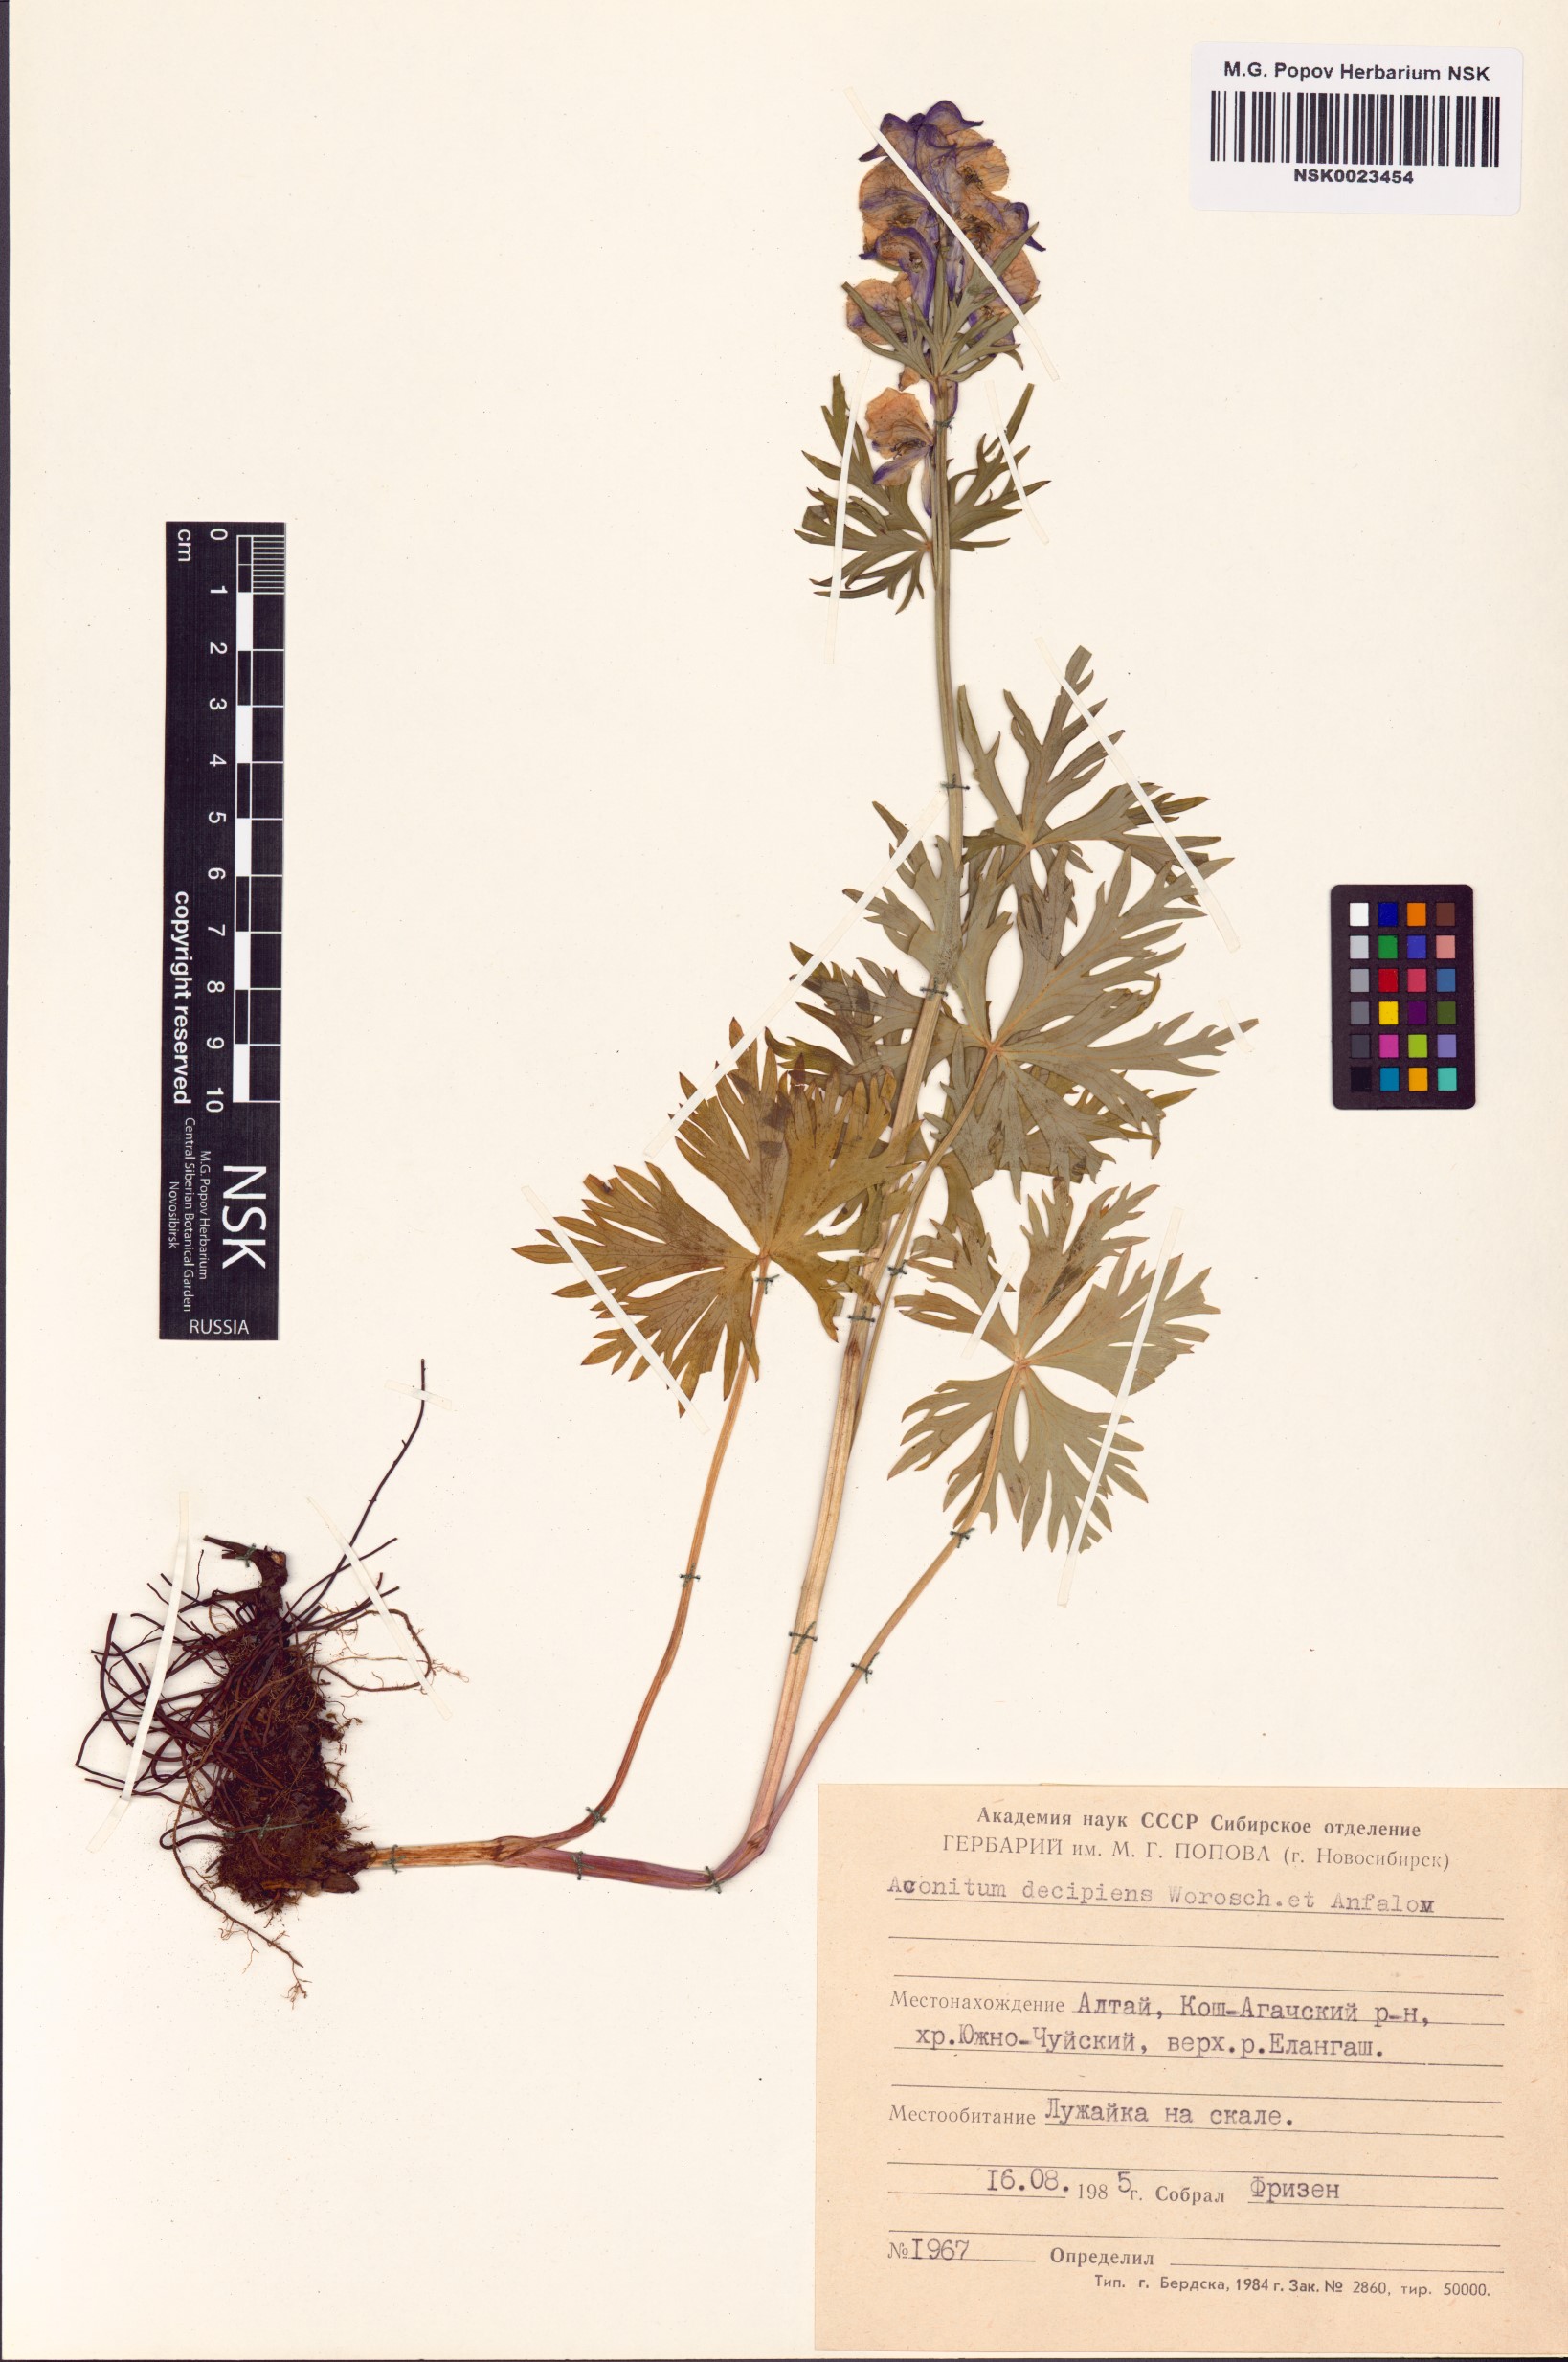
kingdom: Plantae
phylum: Tracheophyta
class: Magnoliopsida
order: Ranunculales
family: Ranunculaceae
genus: Aconitum
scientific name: Aconitum decipiens
